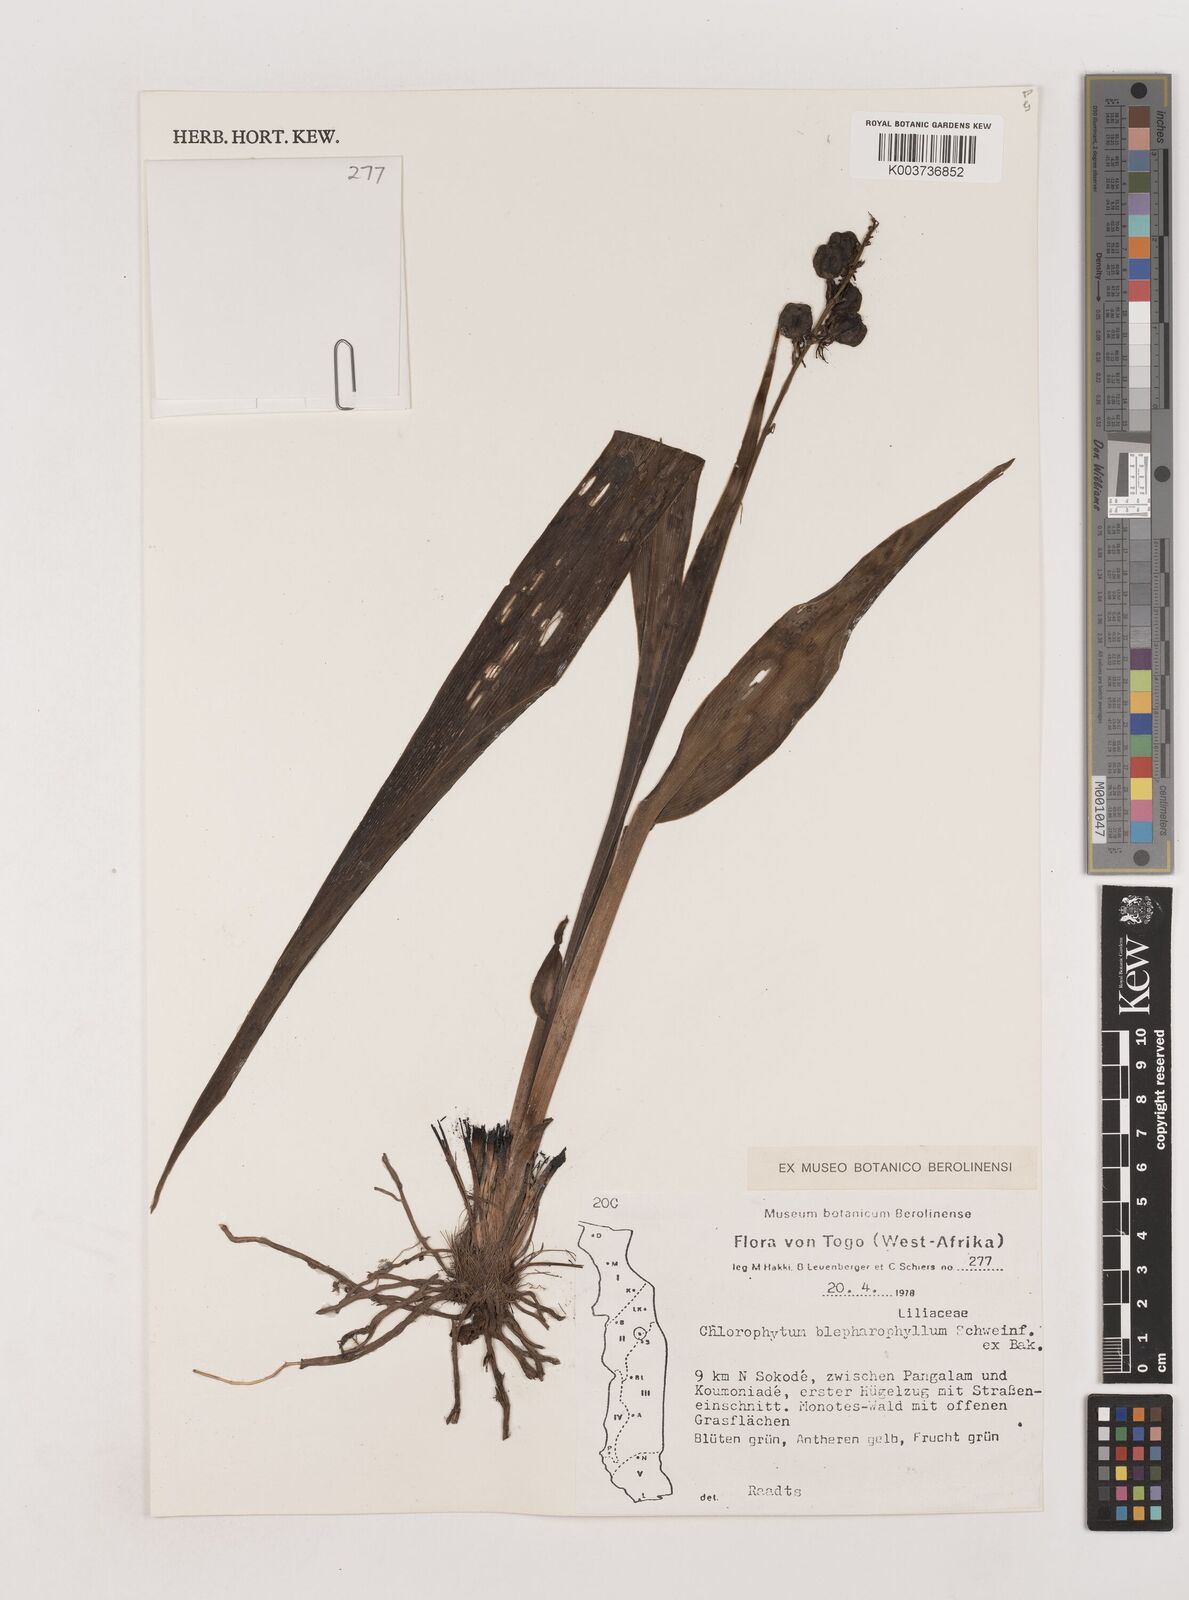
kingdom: Plantae
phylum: Tracheophyta
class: Liliopsida
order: Asparagales
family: Asparagaceae
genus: Chlorophytum
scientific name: Chlorophytum blepharophyllum
